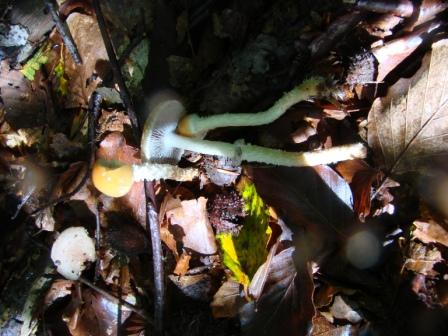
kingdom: Fungi
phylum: Basidiomycota
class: Agaricomycetes
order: Agaricales
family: Strophariaceae
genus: Leratiomyces
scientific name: Leratiomyces squamosus
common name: skællet bredblad
